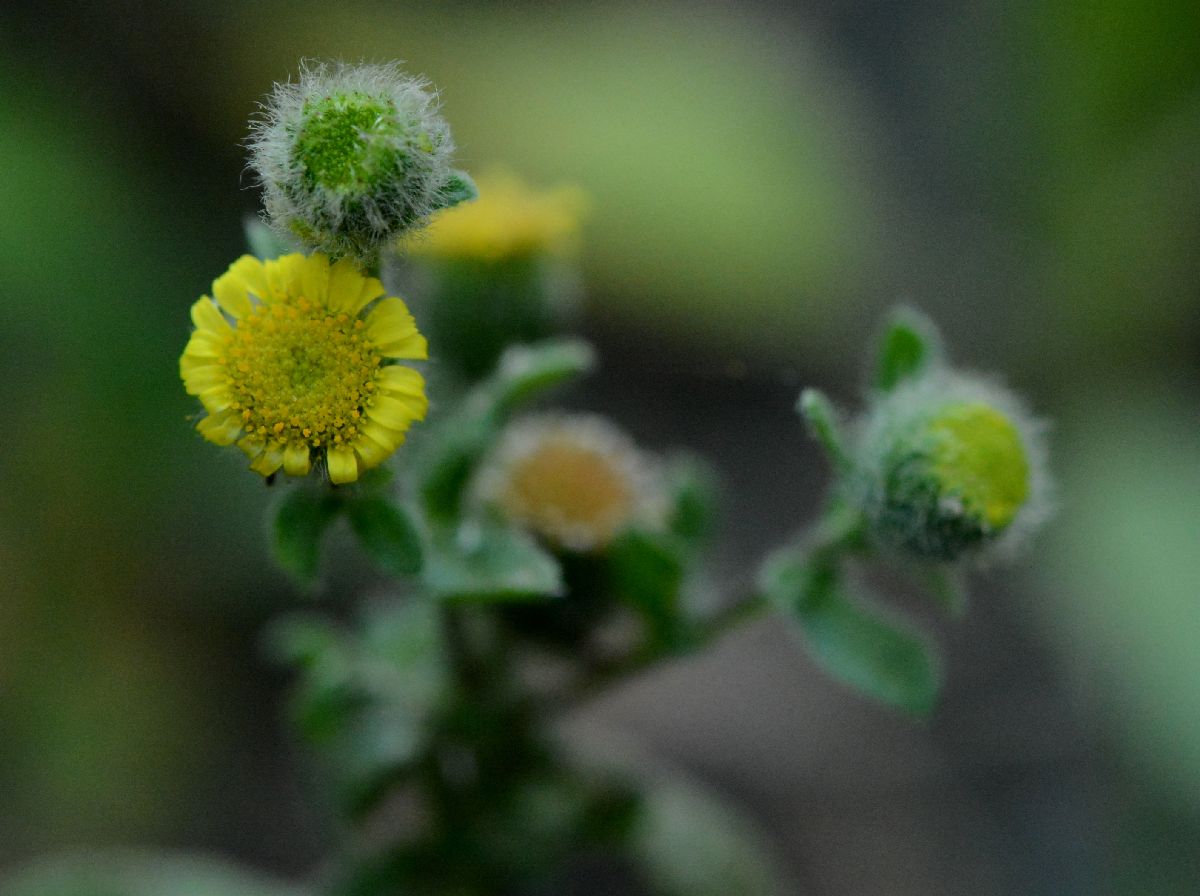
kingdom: Plantae
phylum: Tracheophyta
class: Magnoliopsida
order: Asterales
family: Asteraceae
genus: Pulicaria
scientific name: Pulicaria vulgaris
